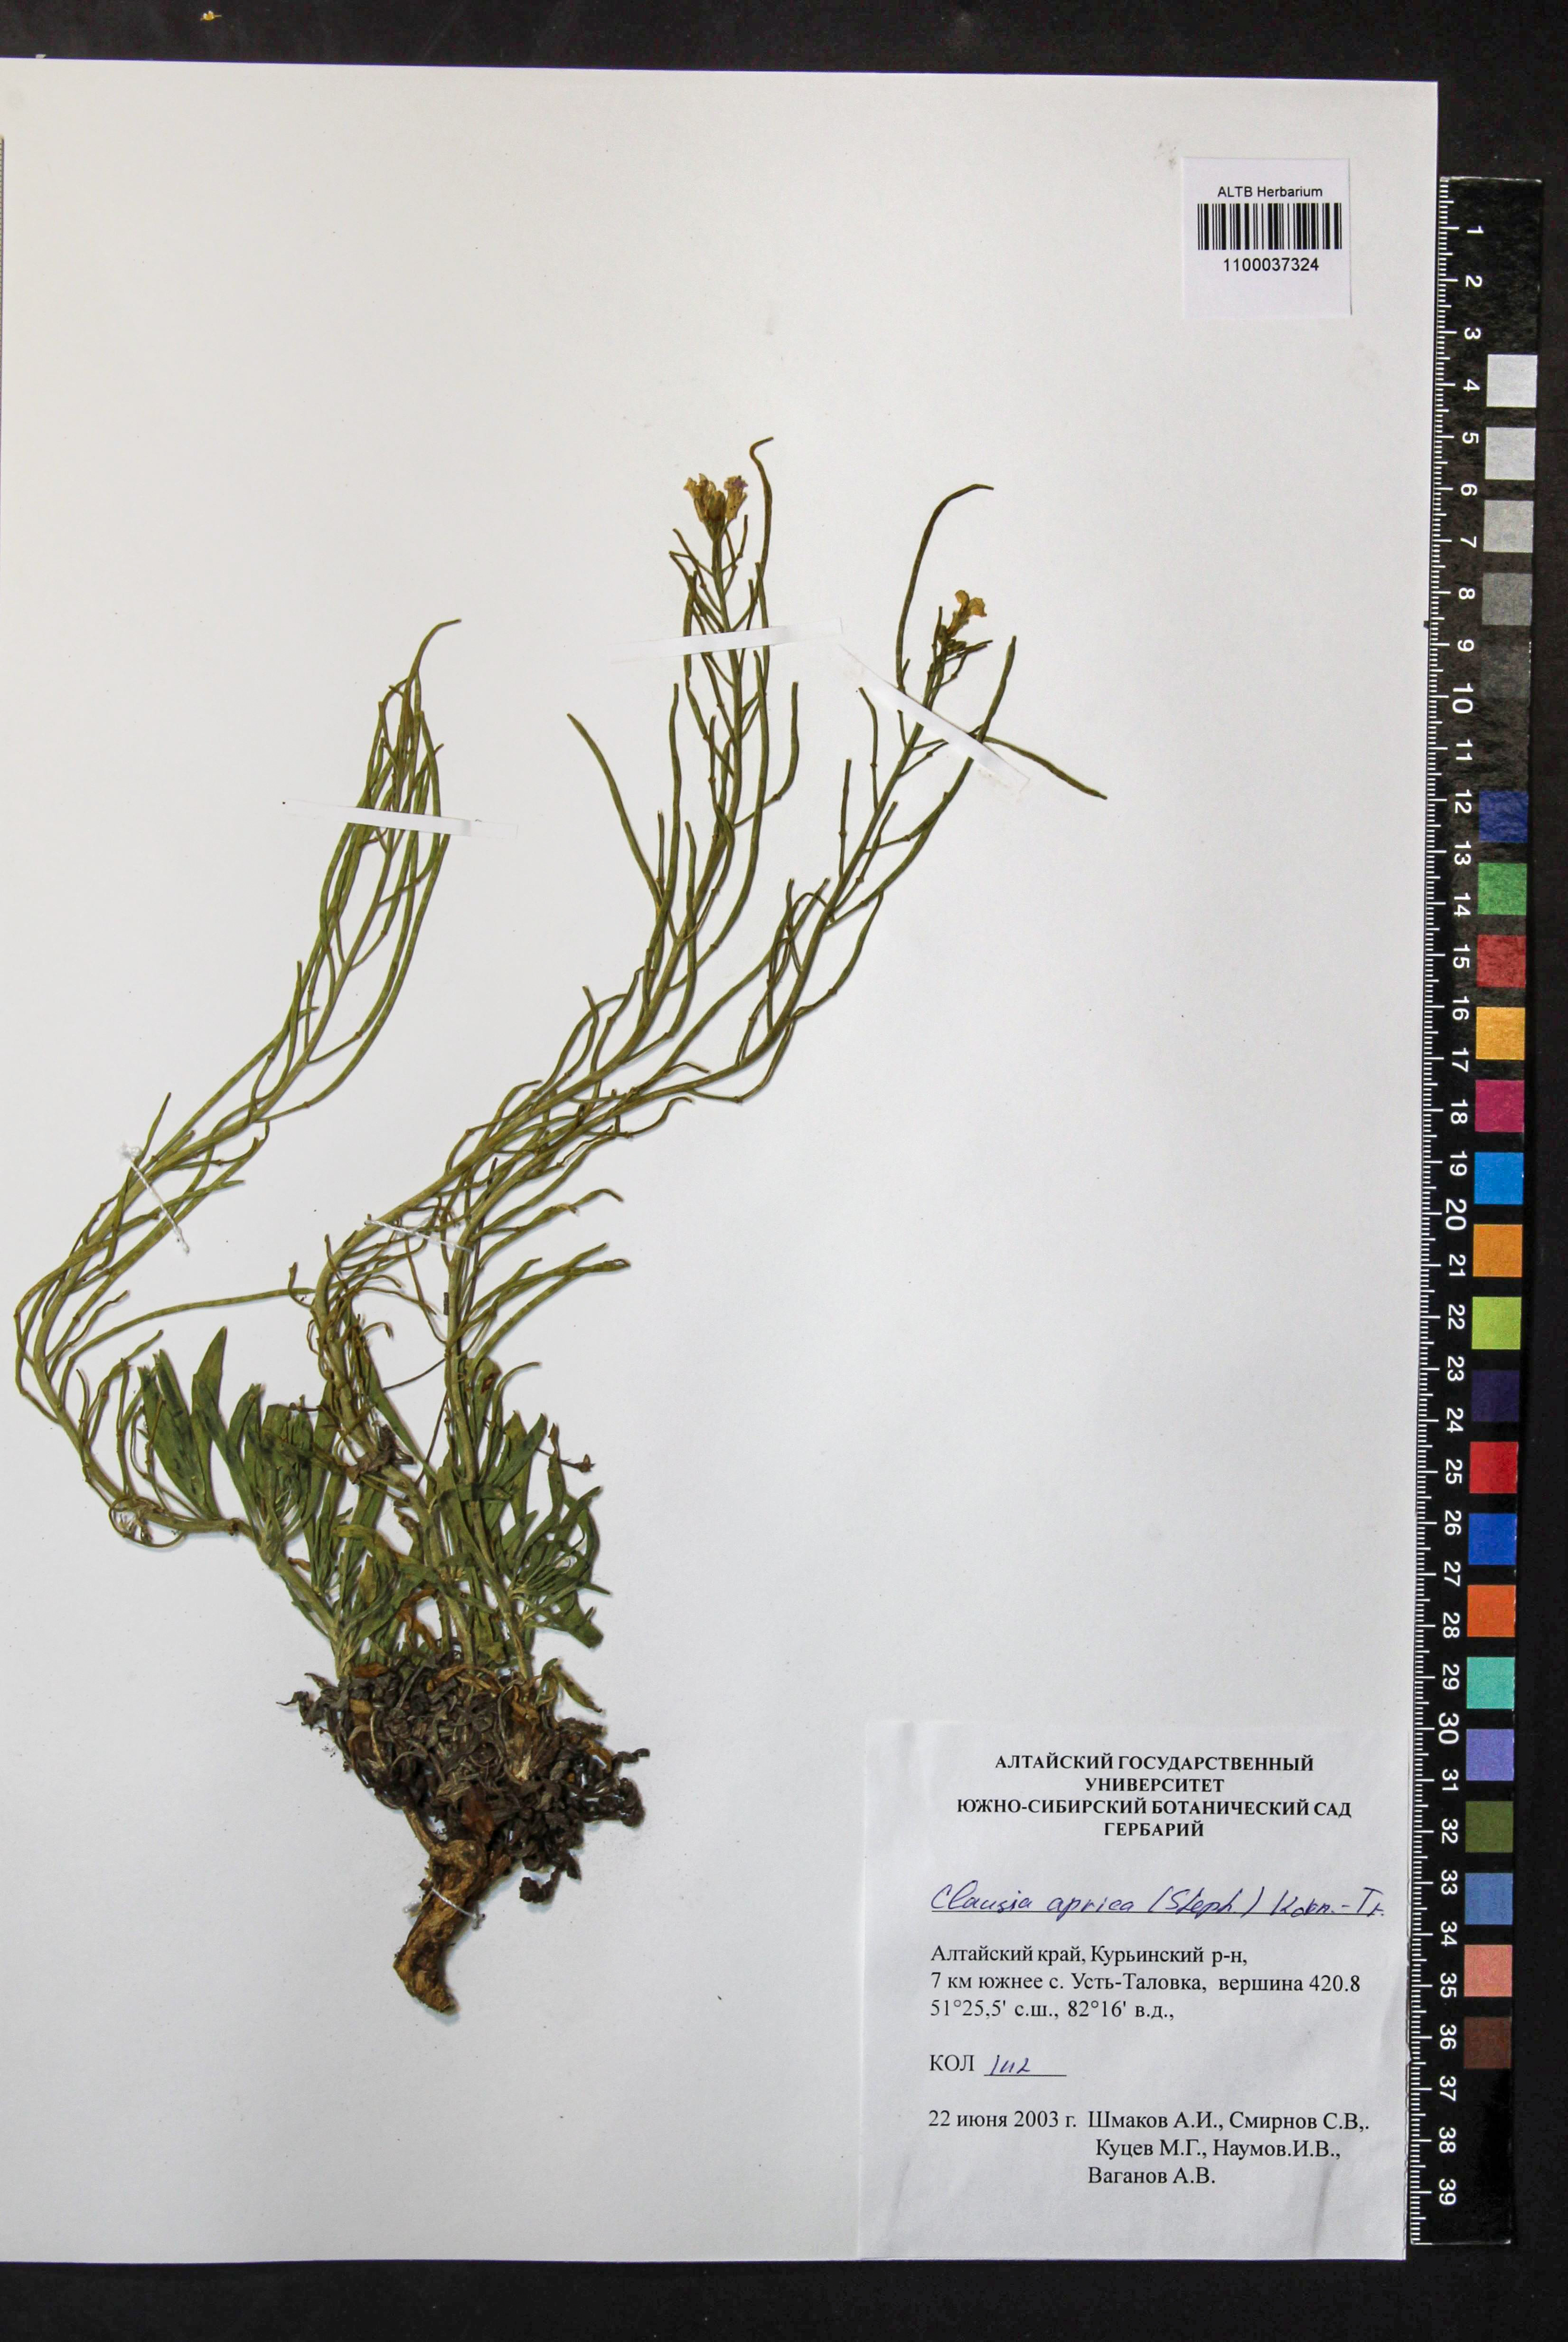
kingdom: Plantae
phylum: Tracheophyta
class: Magnoliopsida
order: Brassicales
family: Brassicaceae
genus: Clausia
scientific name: Clausia aprica
